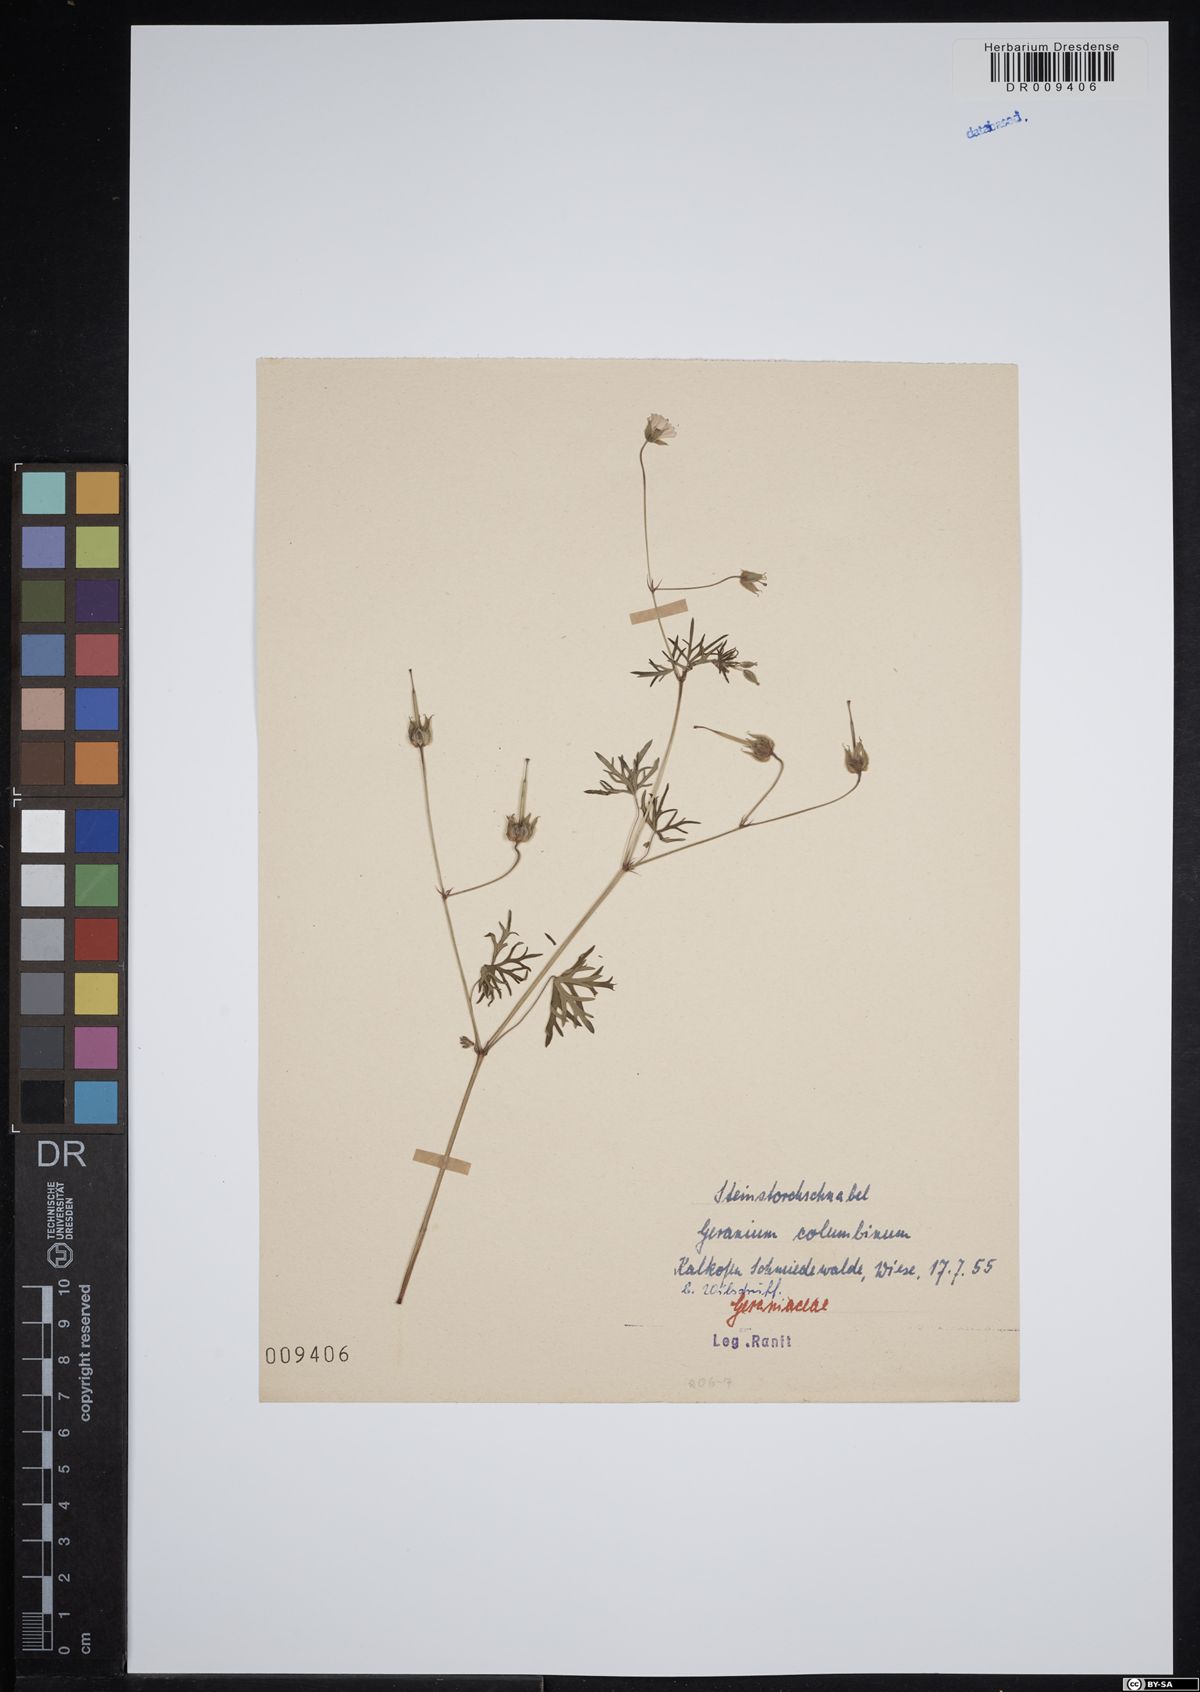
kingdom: Plantae
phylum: Tracheophyta
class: Magnoliopsida
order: Geraniales
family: Geraniaceae
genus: Geranium
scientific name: Geranium columbinum
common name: Long-stalked crane's-bill
